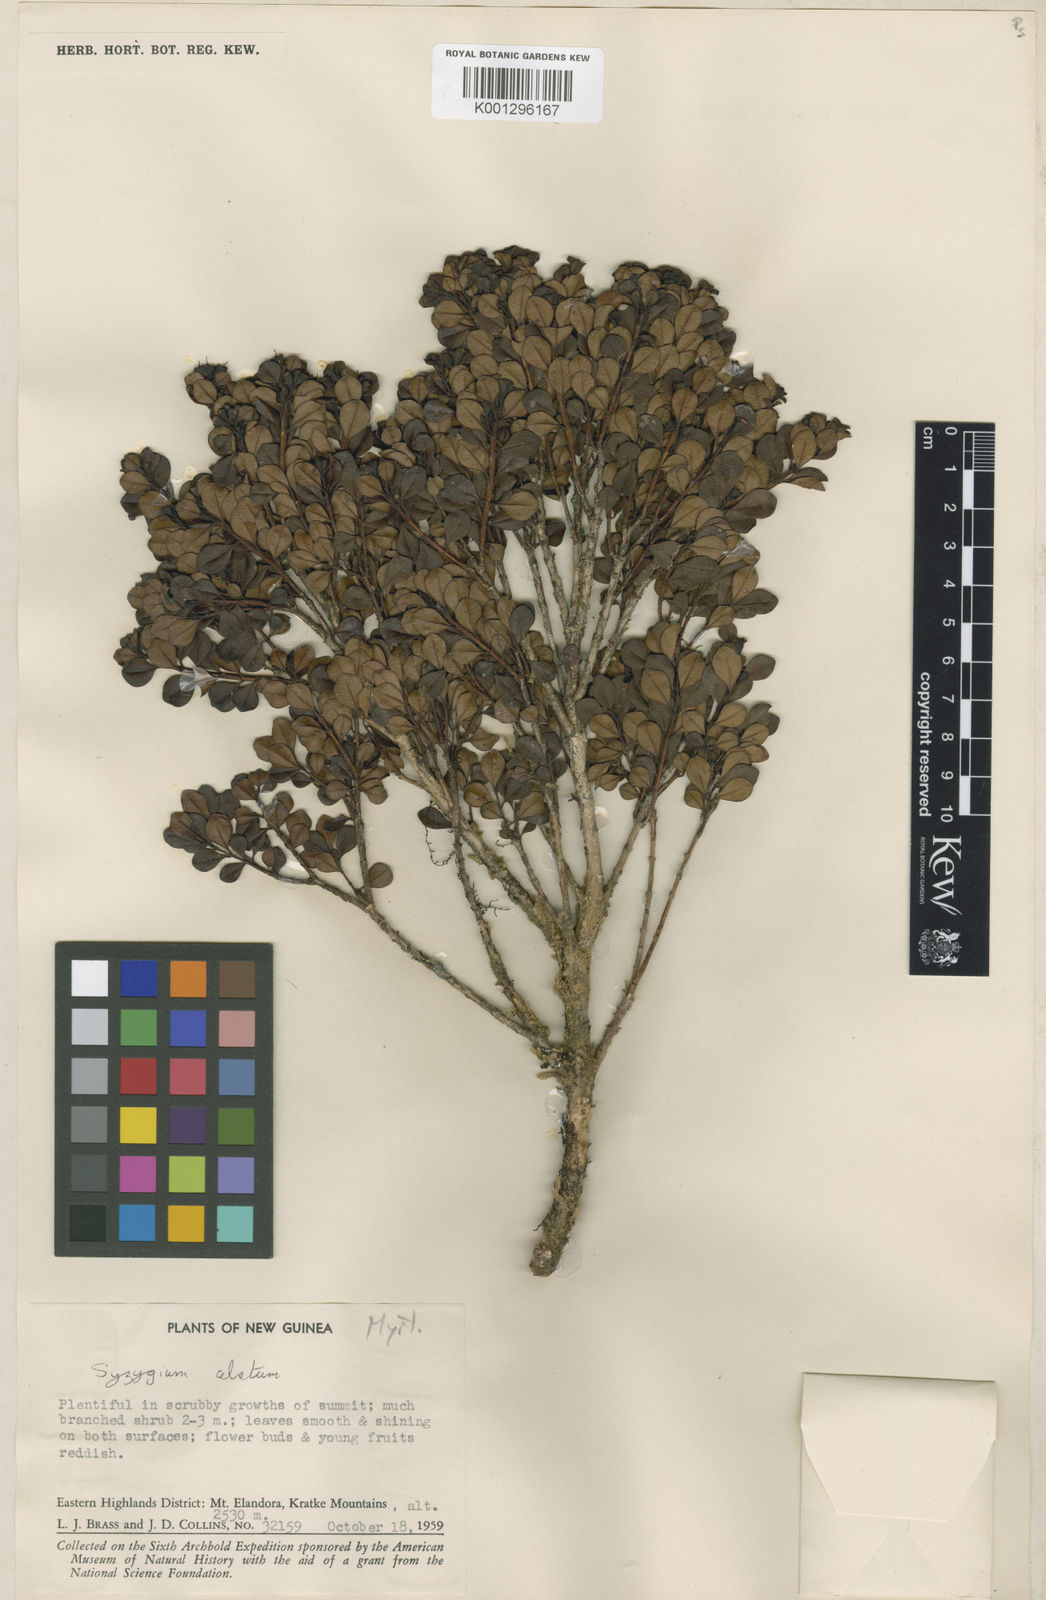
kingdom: Plantae
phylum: Tracheophyta
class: Magnoliopsida
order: Myrtales
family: Myrtaceae
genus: Syzygium
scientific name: Syzygium alatum
